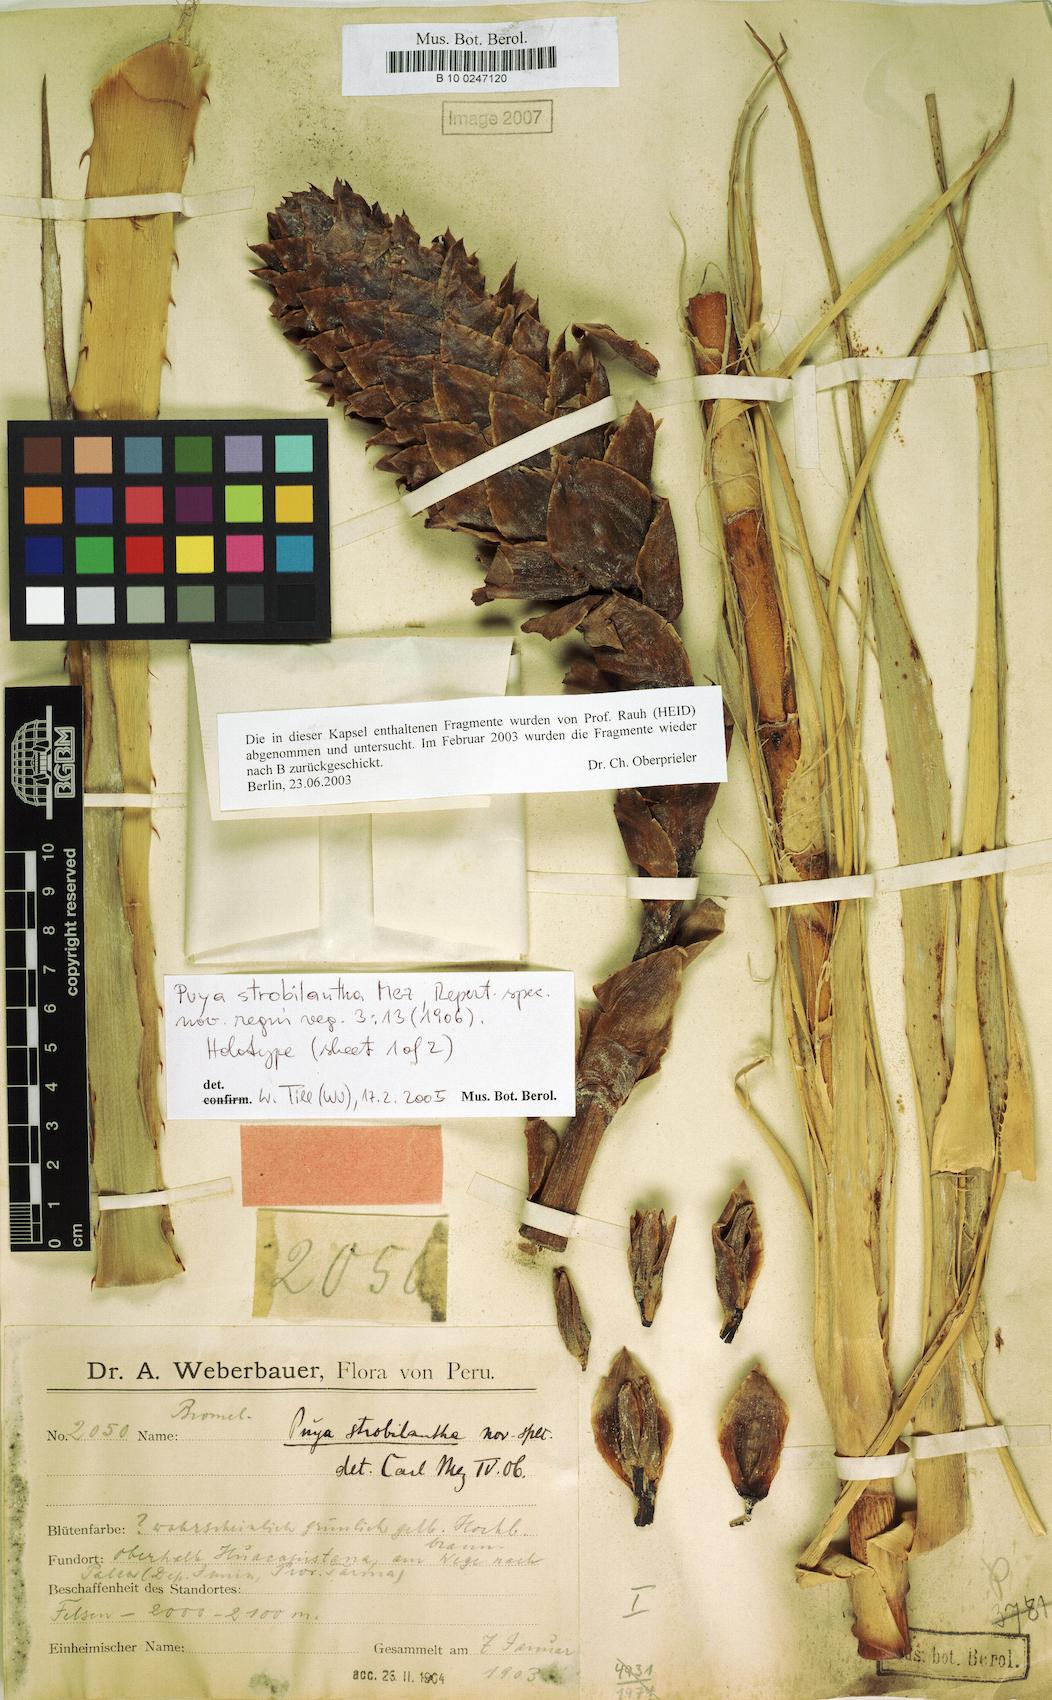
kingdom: Plantae
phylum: Tracheophyta
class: Liliopsida
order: Poales
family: Bromeliaceae
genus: Puya
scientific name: Puya strobilantha
